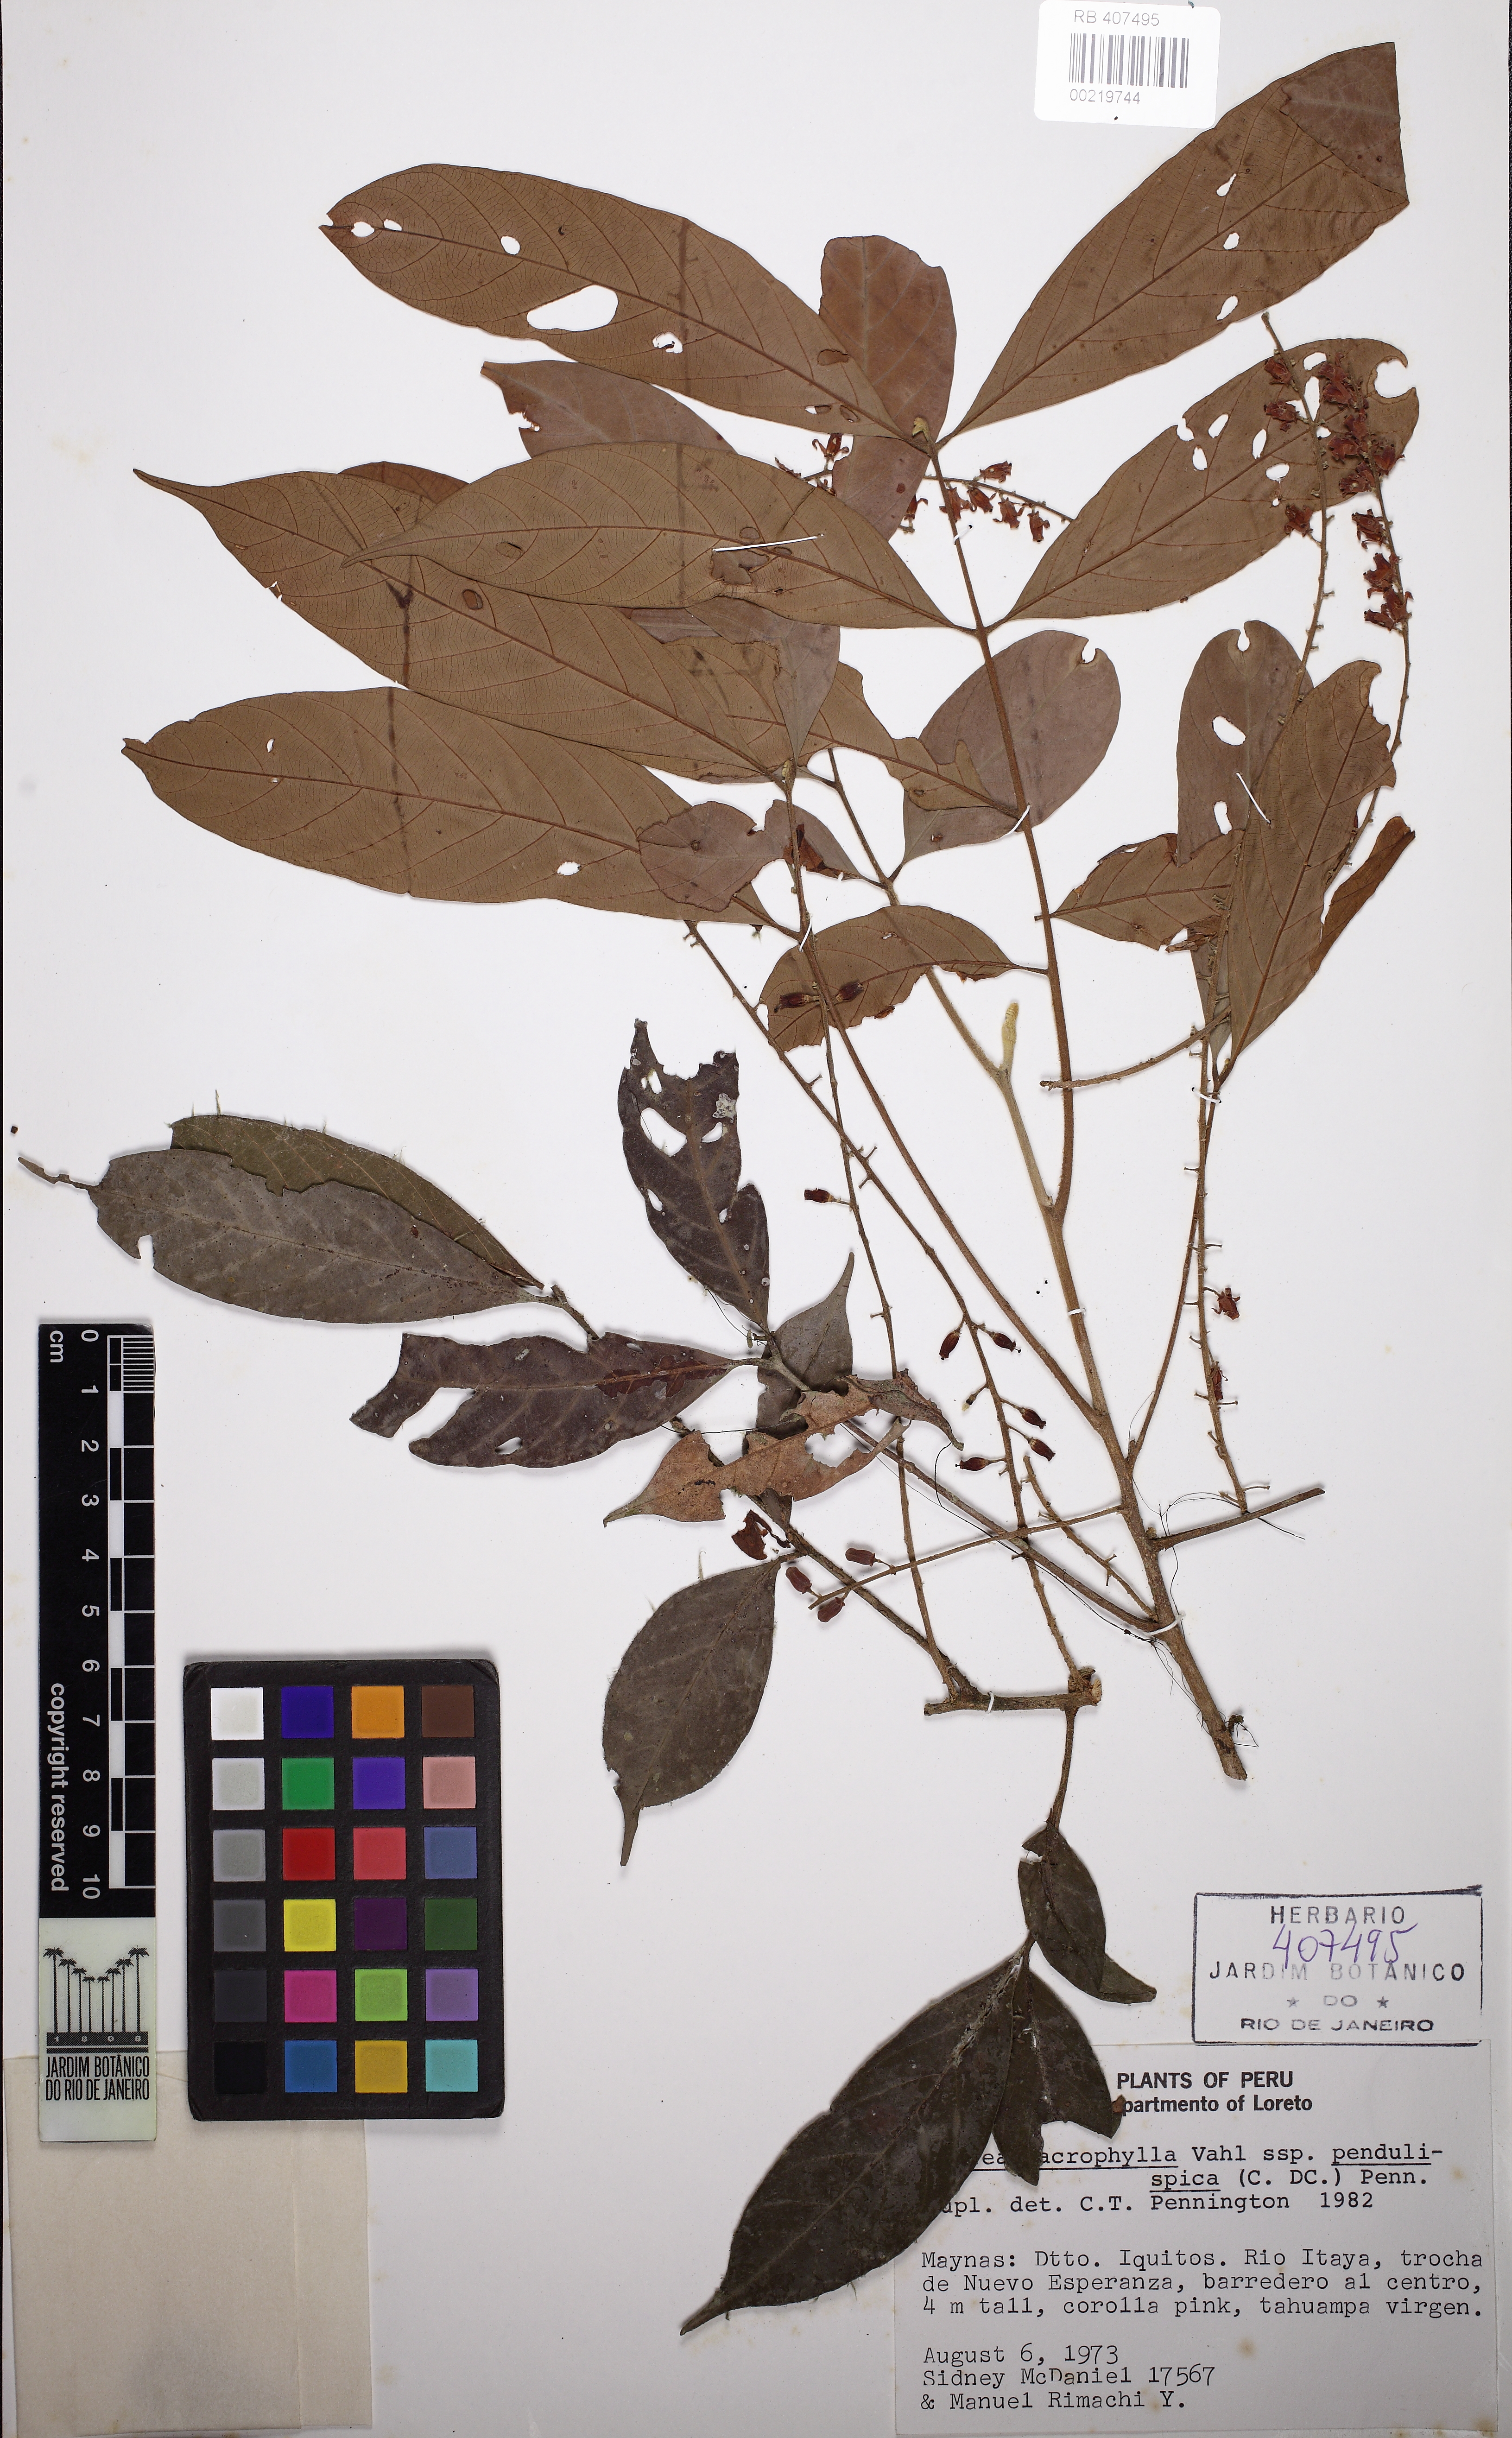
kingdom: Plantae
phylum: Tracheophyta
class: Magnoliopsida
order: Sapindales
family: Meliaceae
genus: Guarea
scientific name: Guarea macrophylla
